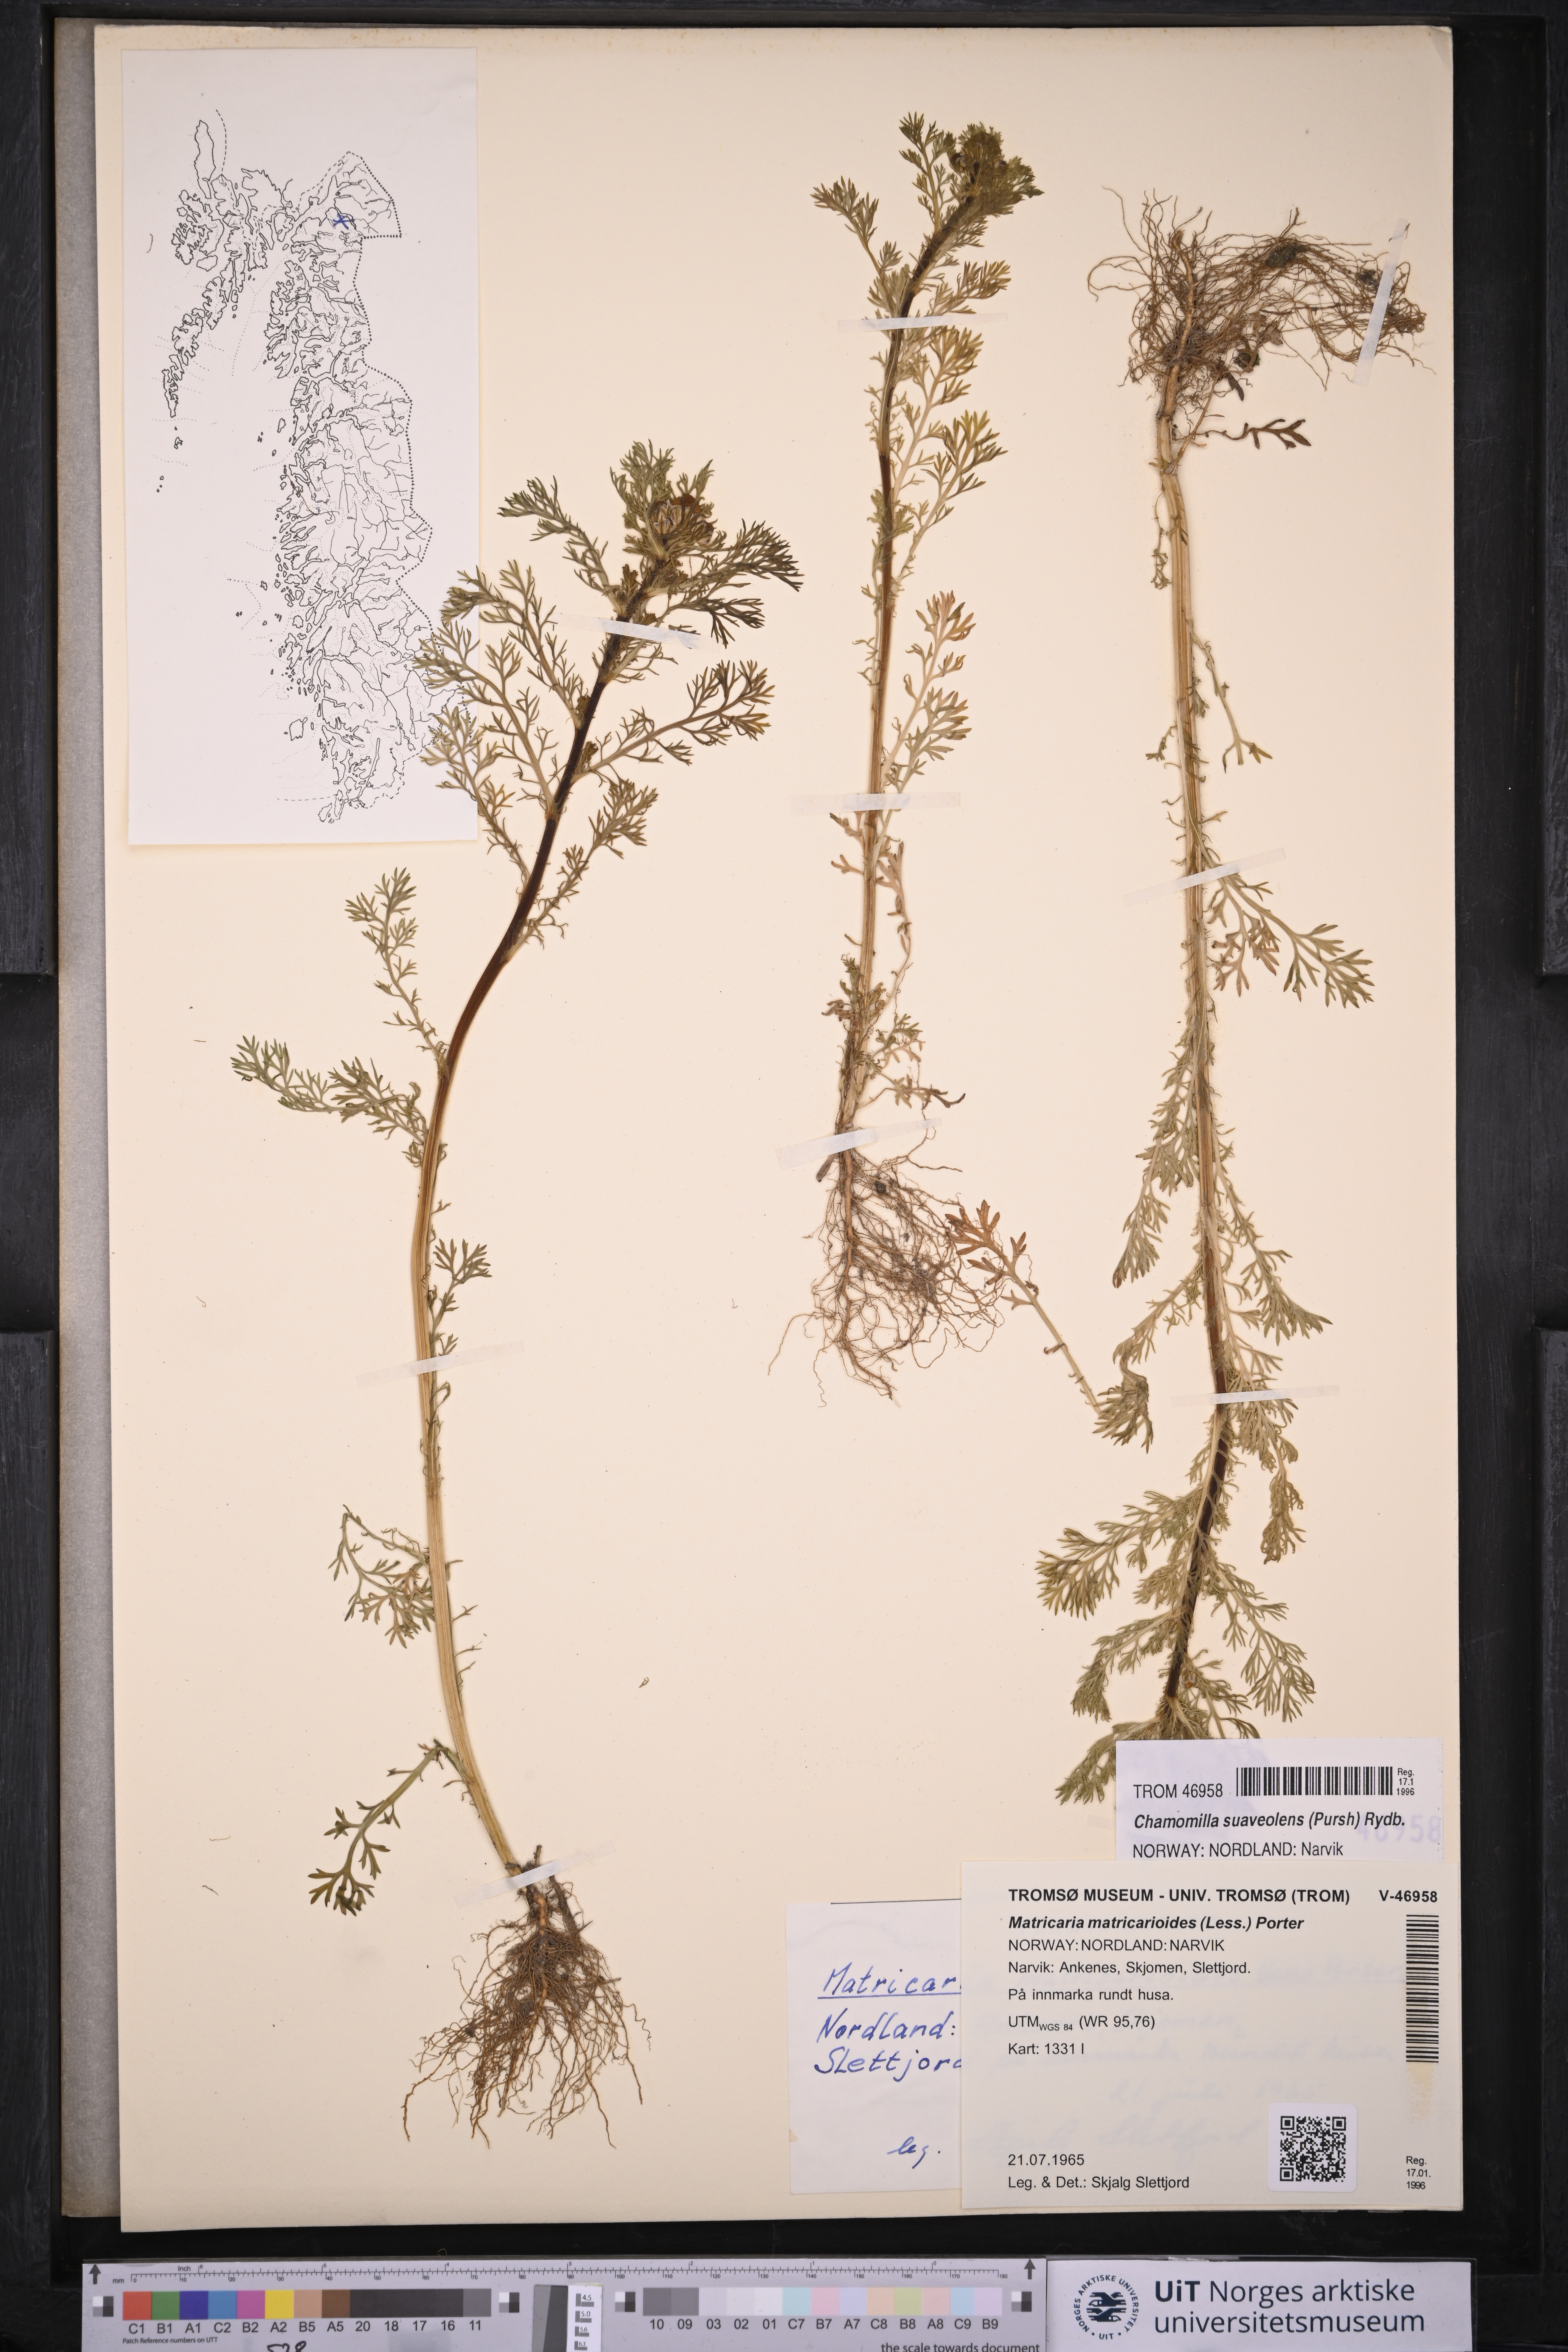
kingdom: Plantae
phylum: Tracheophyta
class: Magnoliopsida
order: Asterales
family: Asteraceae
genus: Matricaria
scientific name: Matricaria discoidea
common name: Disc mayweed
